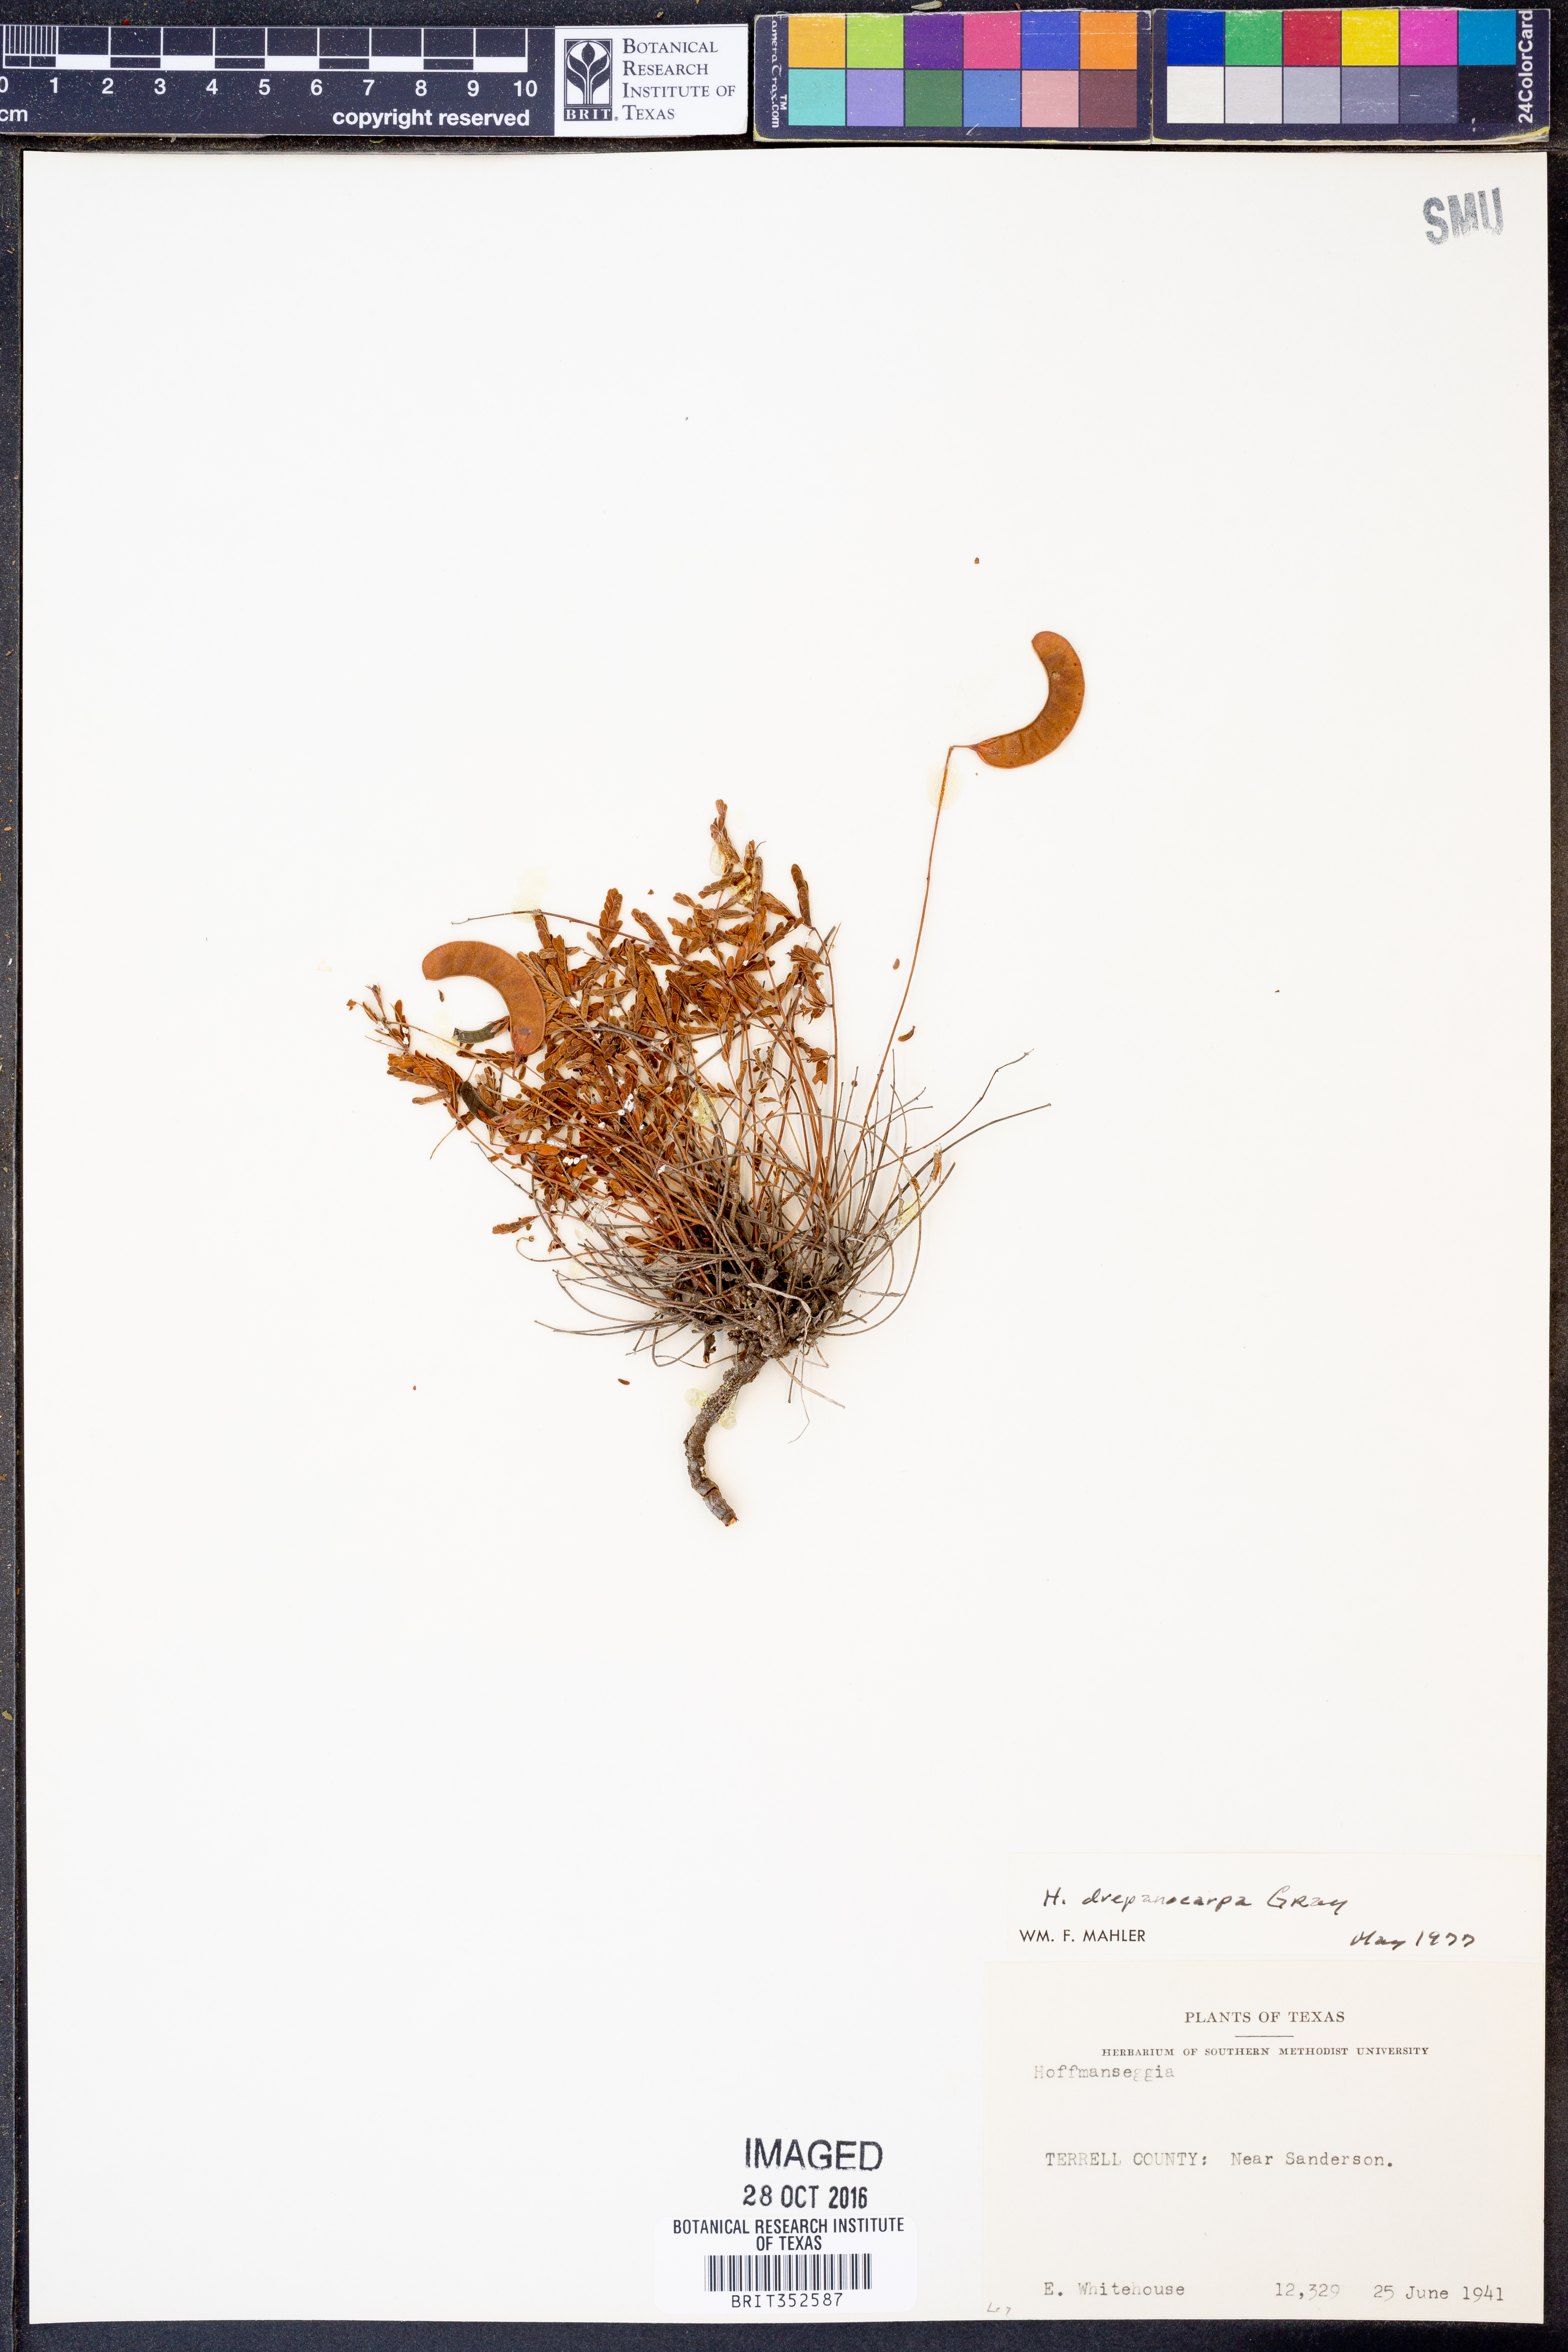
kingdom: Plantae
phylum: Tracheophyta
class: Magnoliopsida
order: Fabales
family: Fabaceae
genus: Hoffmannseggia
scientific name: Hoffmannseggia drepanocarpa
